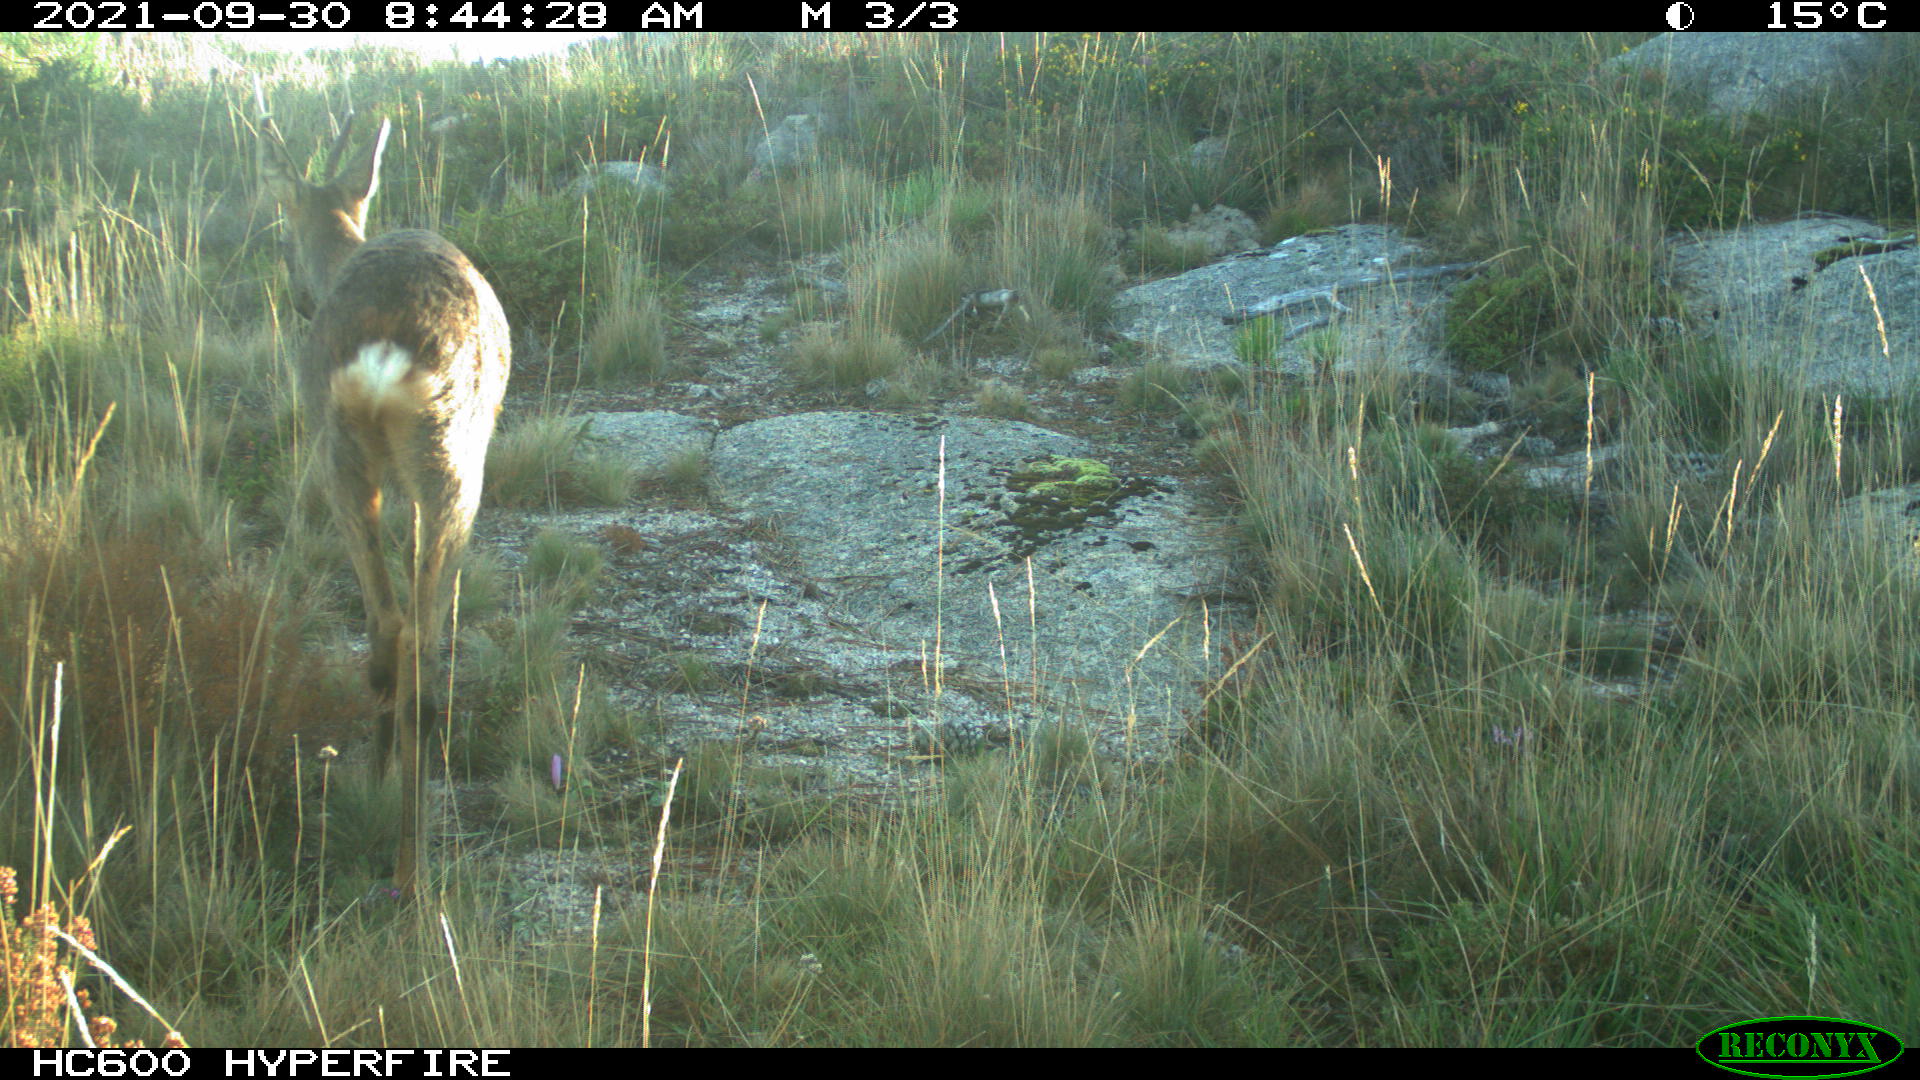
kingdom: Animalia
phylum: Chordata
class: Mammalia
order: Artiodactyla
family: Cervidae
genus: Cervus
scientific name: Cervus elaphus
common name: Red deer
